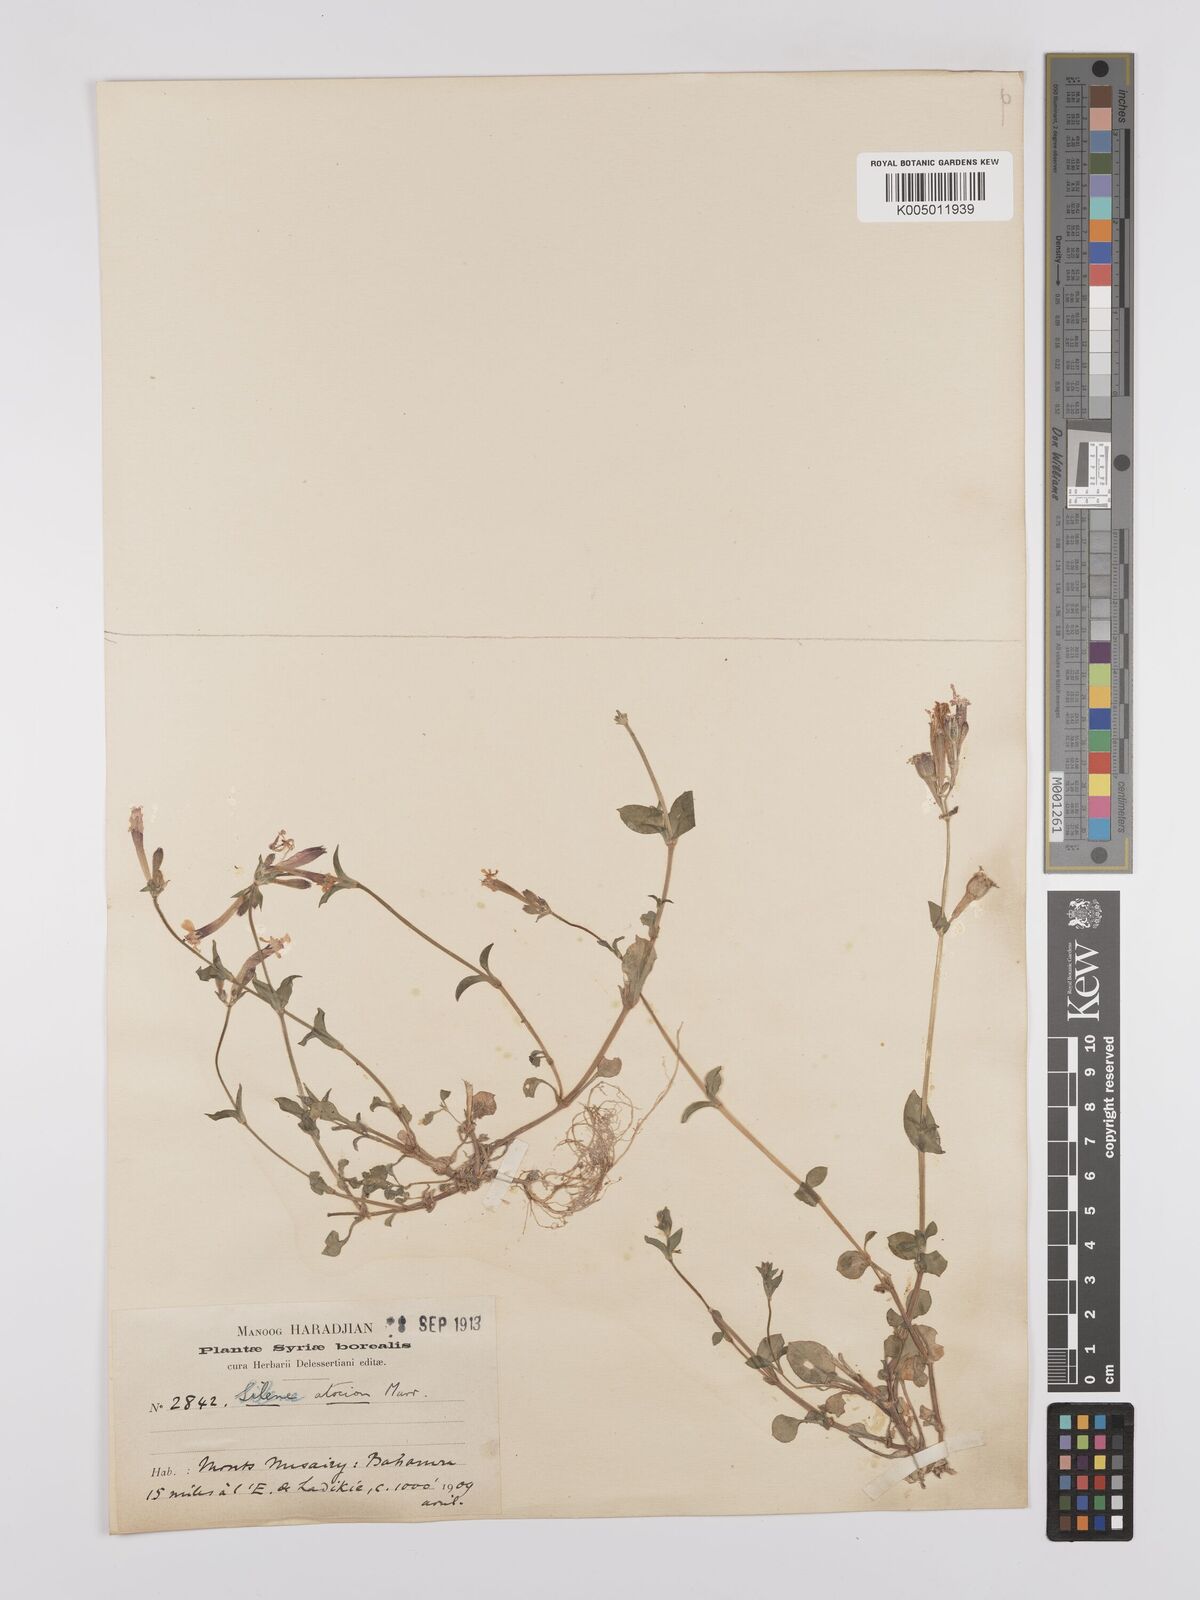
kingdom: Plantae
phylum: Tracheophyta
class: Magnoliopsida
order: Caryophyllales
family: Caryophyllaceae
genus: Silene
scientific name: Silene aegyptiaca
